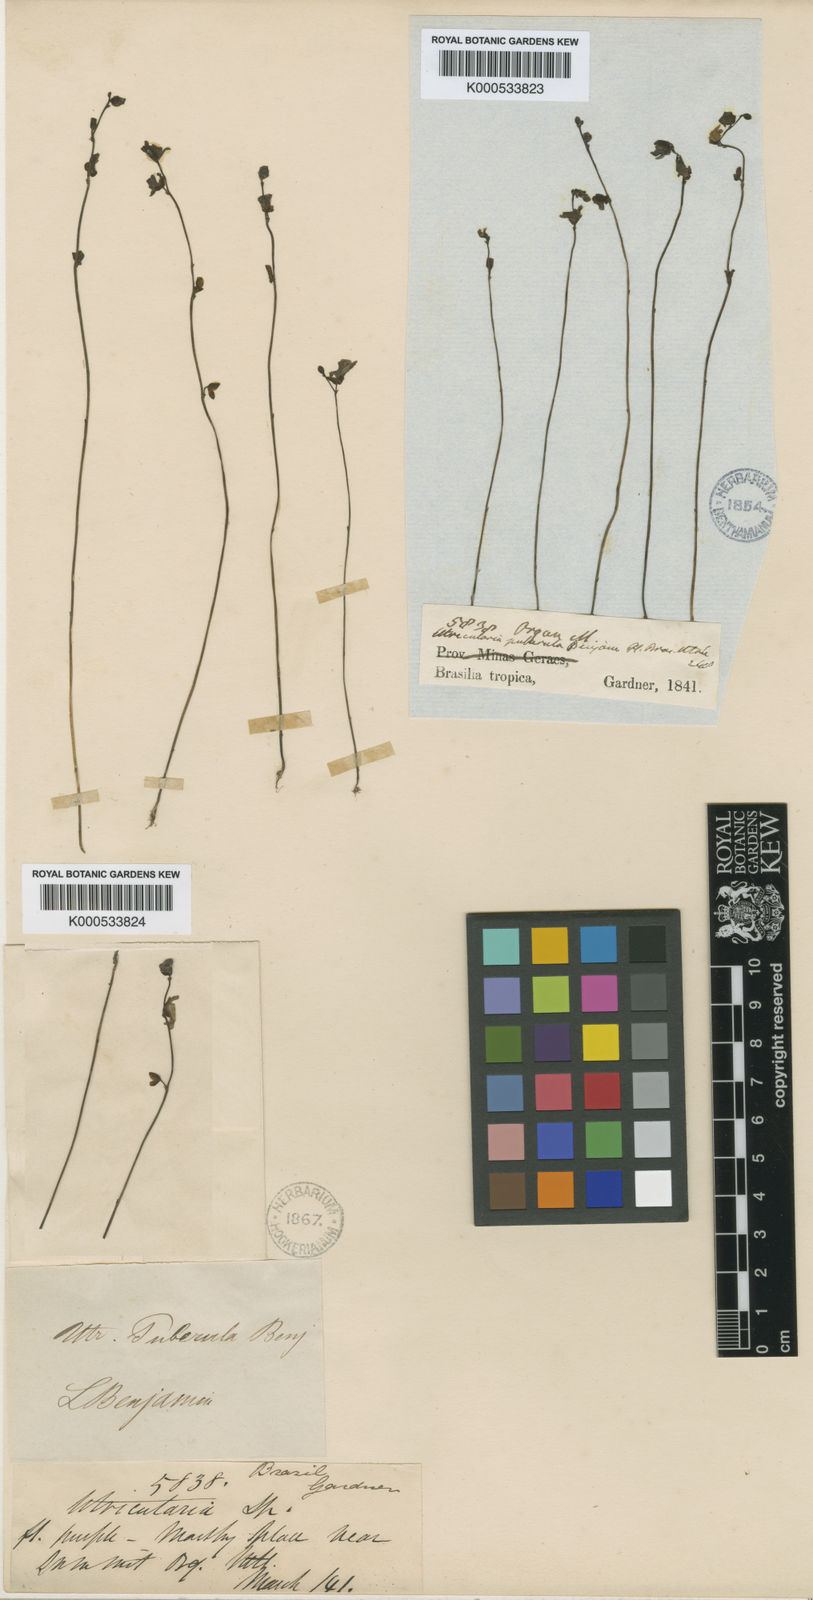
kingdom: Plantae
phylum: Tracheophyta
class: Magnoliopsida
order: Lamiales
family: Lentibulariaceae
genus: Utricularia
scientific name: Utricularia pubescens
